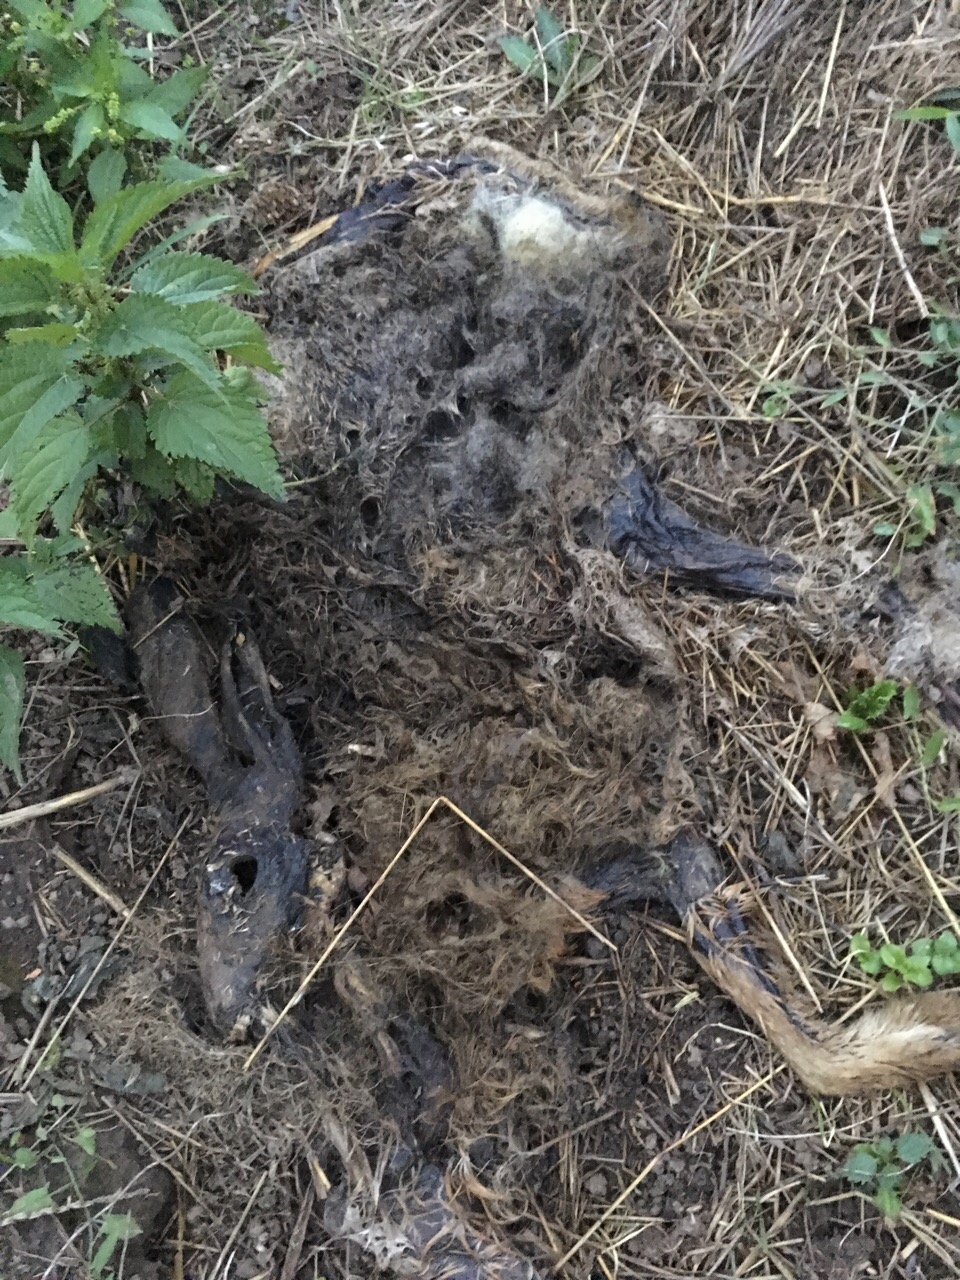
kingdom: Animalia
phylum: Chordata
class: Mammalia
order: Lagomorpha
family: Leporidae
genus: Lepus
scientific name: Lepus europaeus
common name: European hare
